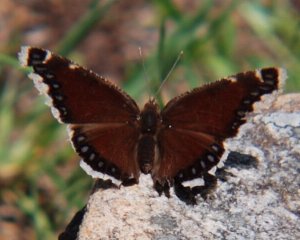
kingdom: Animalia
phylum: Arthropoda
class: Insecta
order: Lepidoptera
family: Nymphalidae
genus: Nymphalis
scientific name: Nymphalis antiopa
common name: Mourning Cloak
